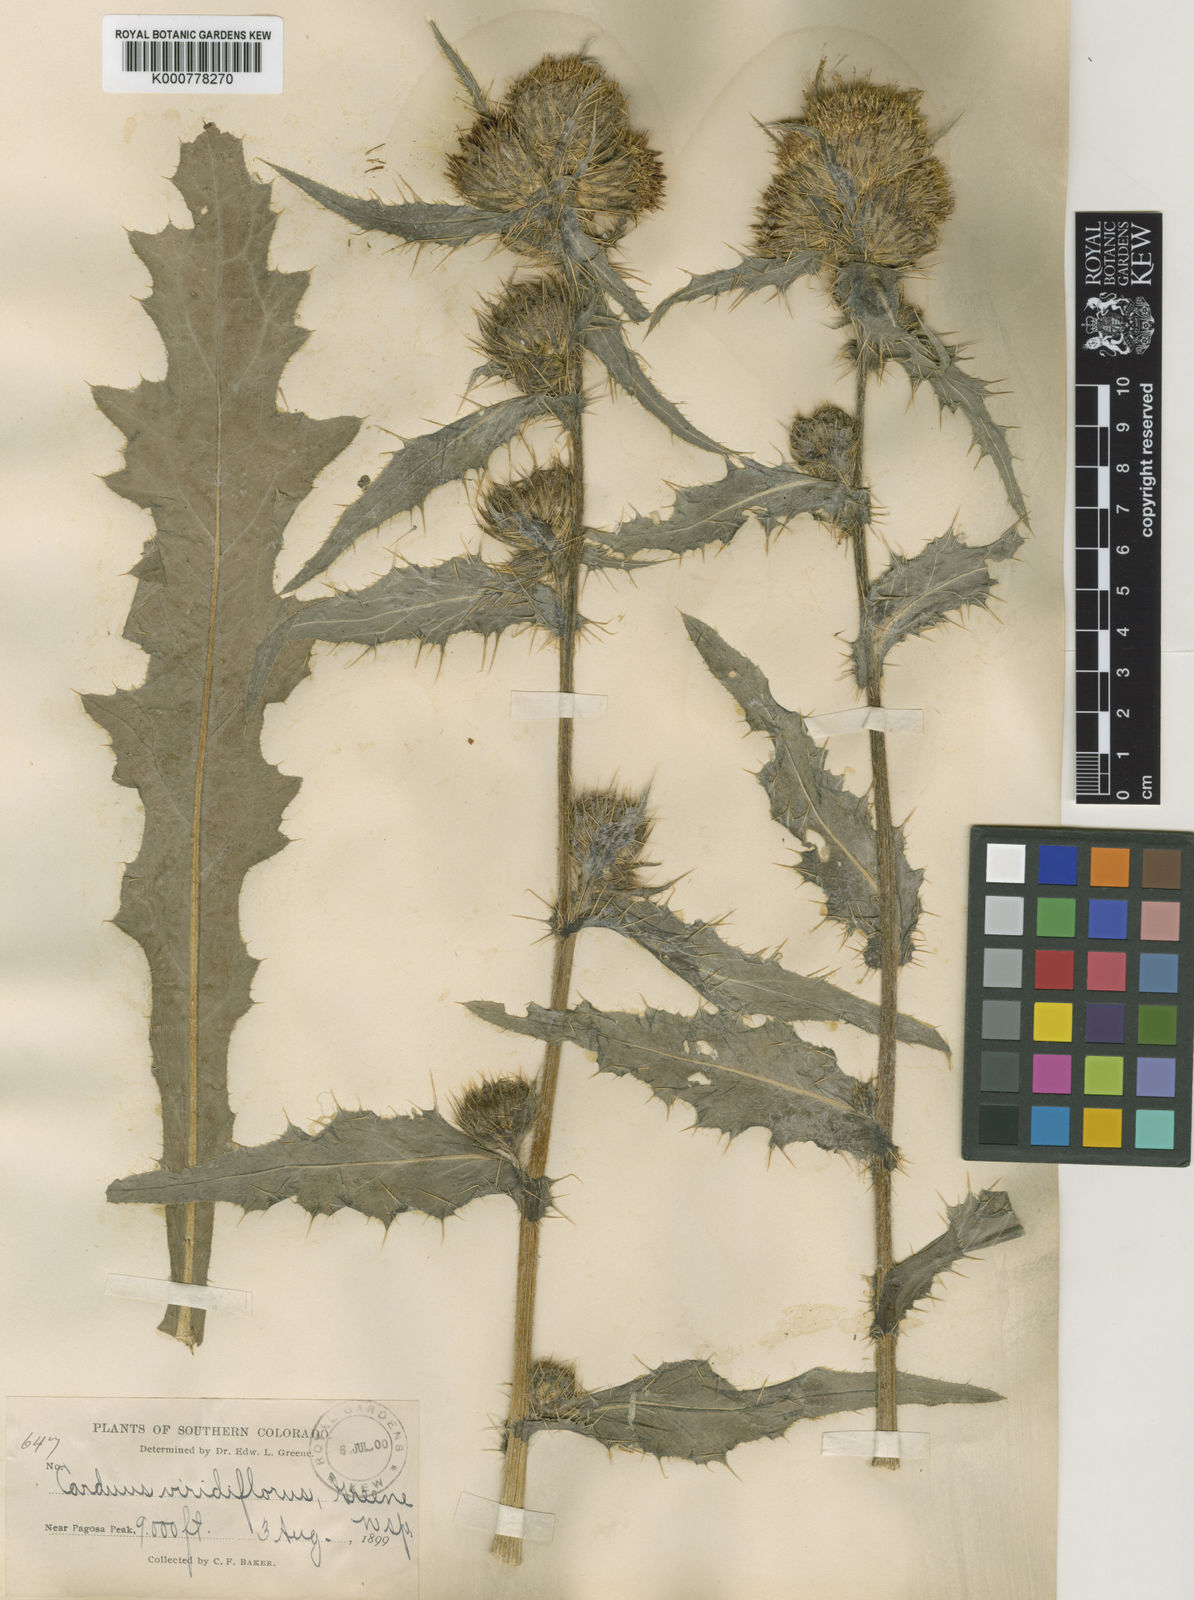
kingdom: Plantae
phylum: Tracheophyta
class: Magnoliopsida
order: Asterales
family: Asteraceae
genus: Cirsium
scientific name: Cirsium viridifolium
